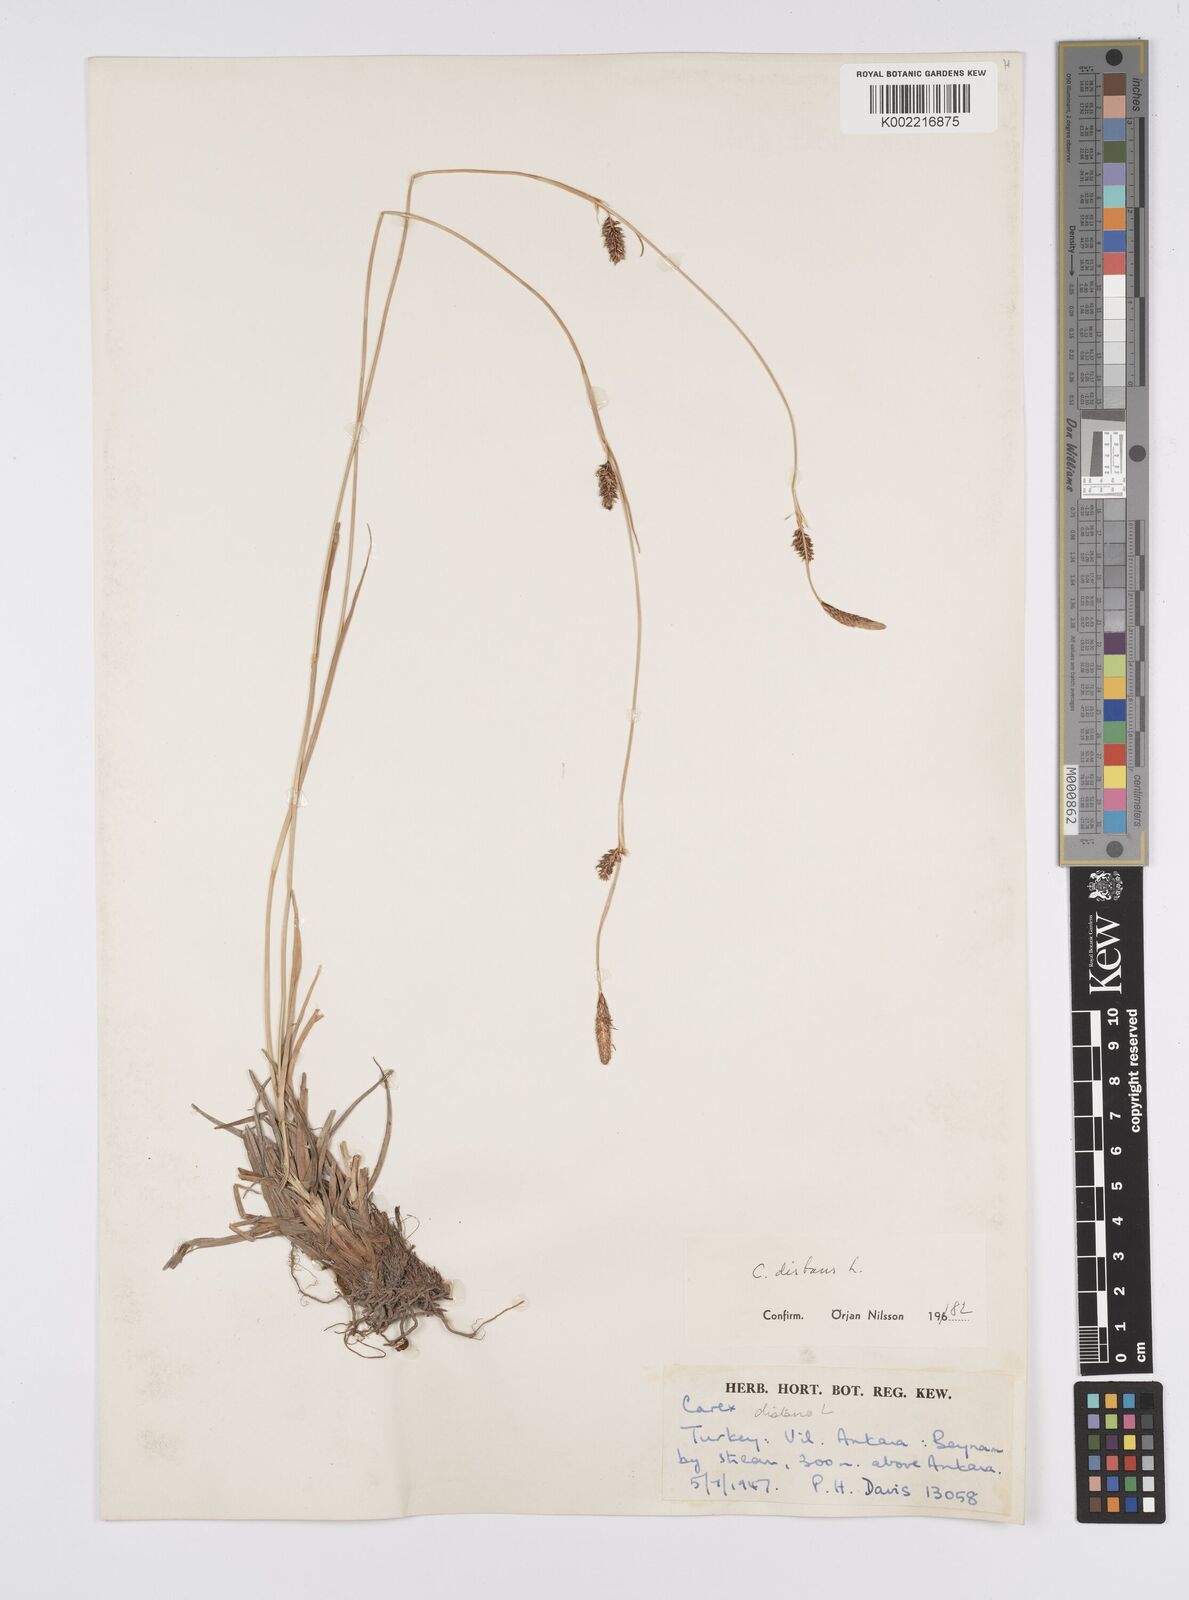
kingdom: Plantae
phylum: Tracheophyta
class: Liliopsida
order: Poales
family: Cyperaceae
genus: Carex
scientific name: Carex distans
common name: Distant sedge
